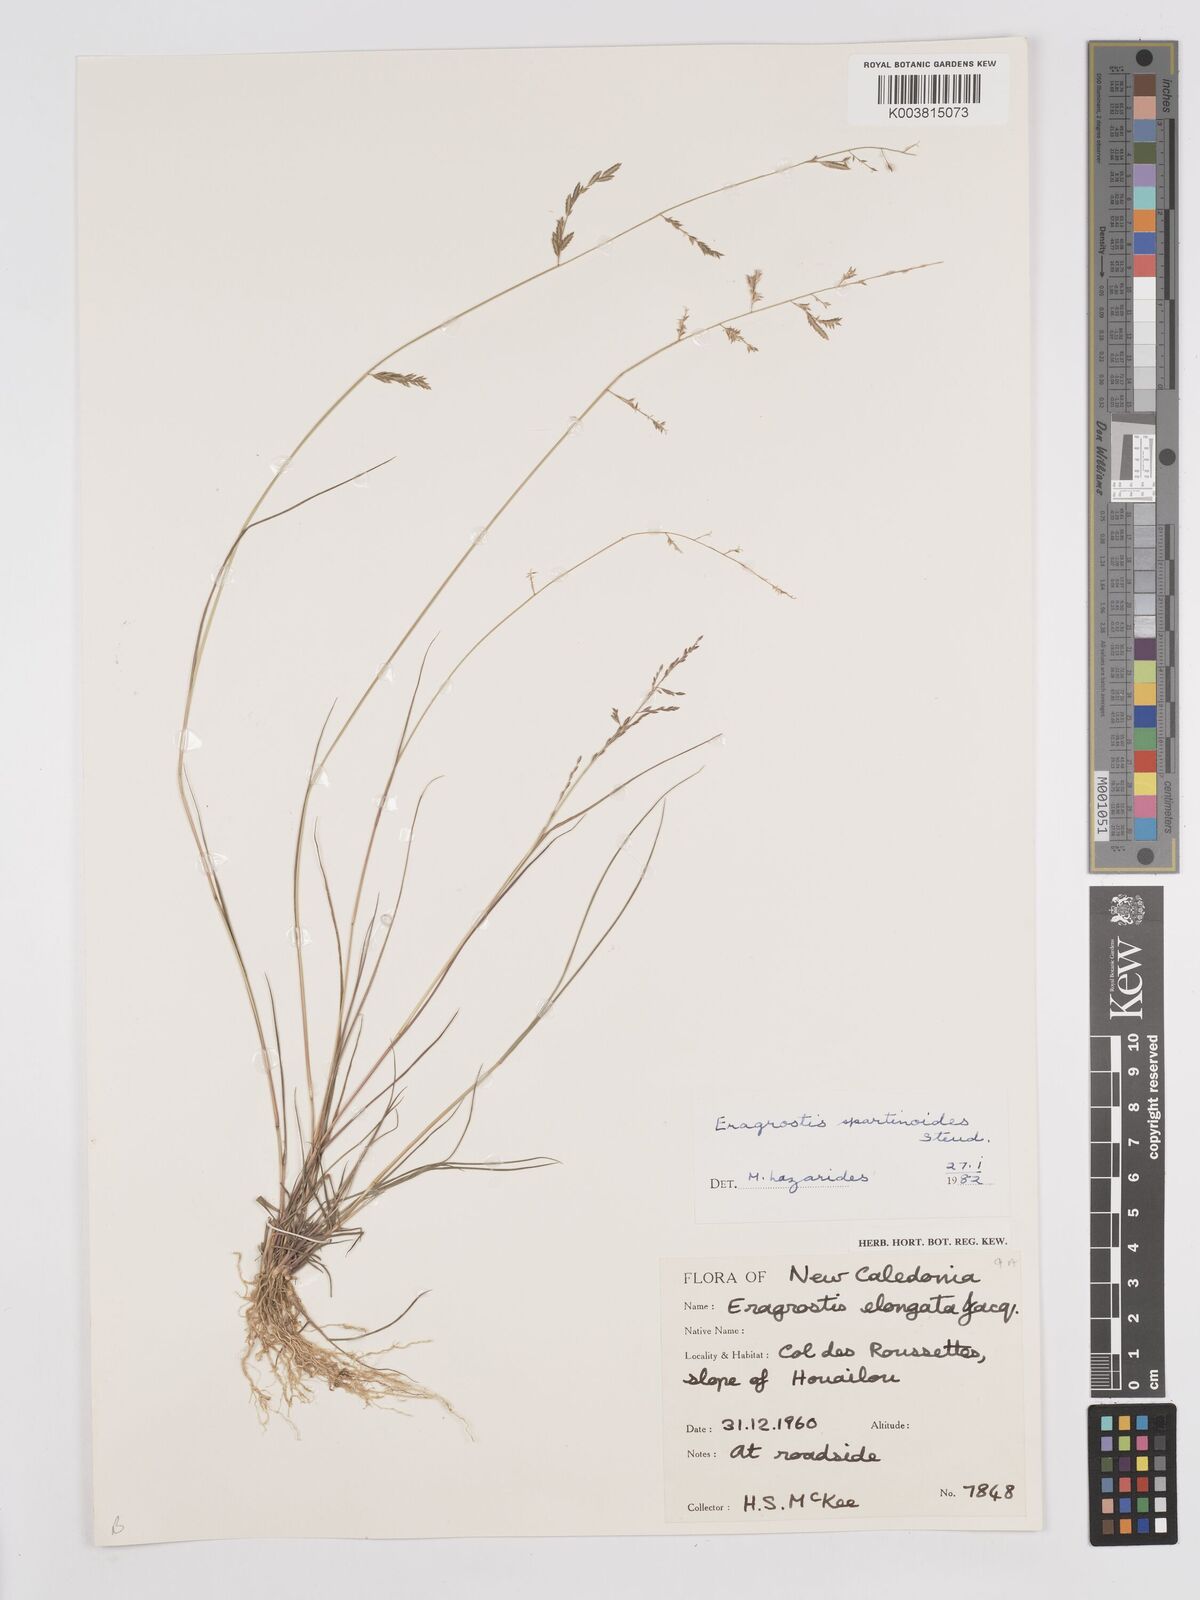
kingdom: Plantae
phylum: Tracheophyta
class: Liliopsida
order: Poales
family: Poaceae
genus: Eragrostis
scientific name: Eragrostis brownii
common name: Lovegrass
